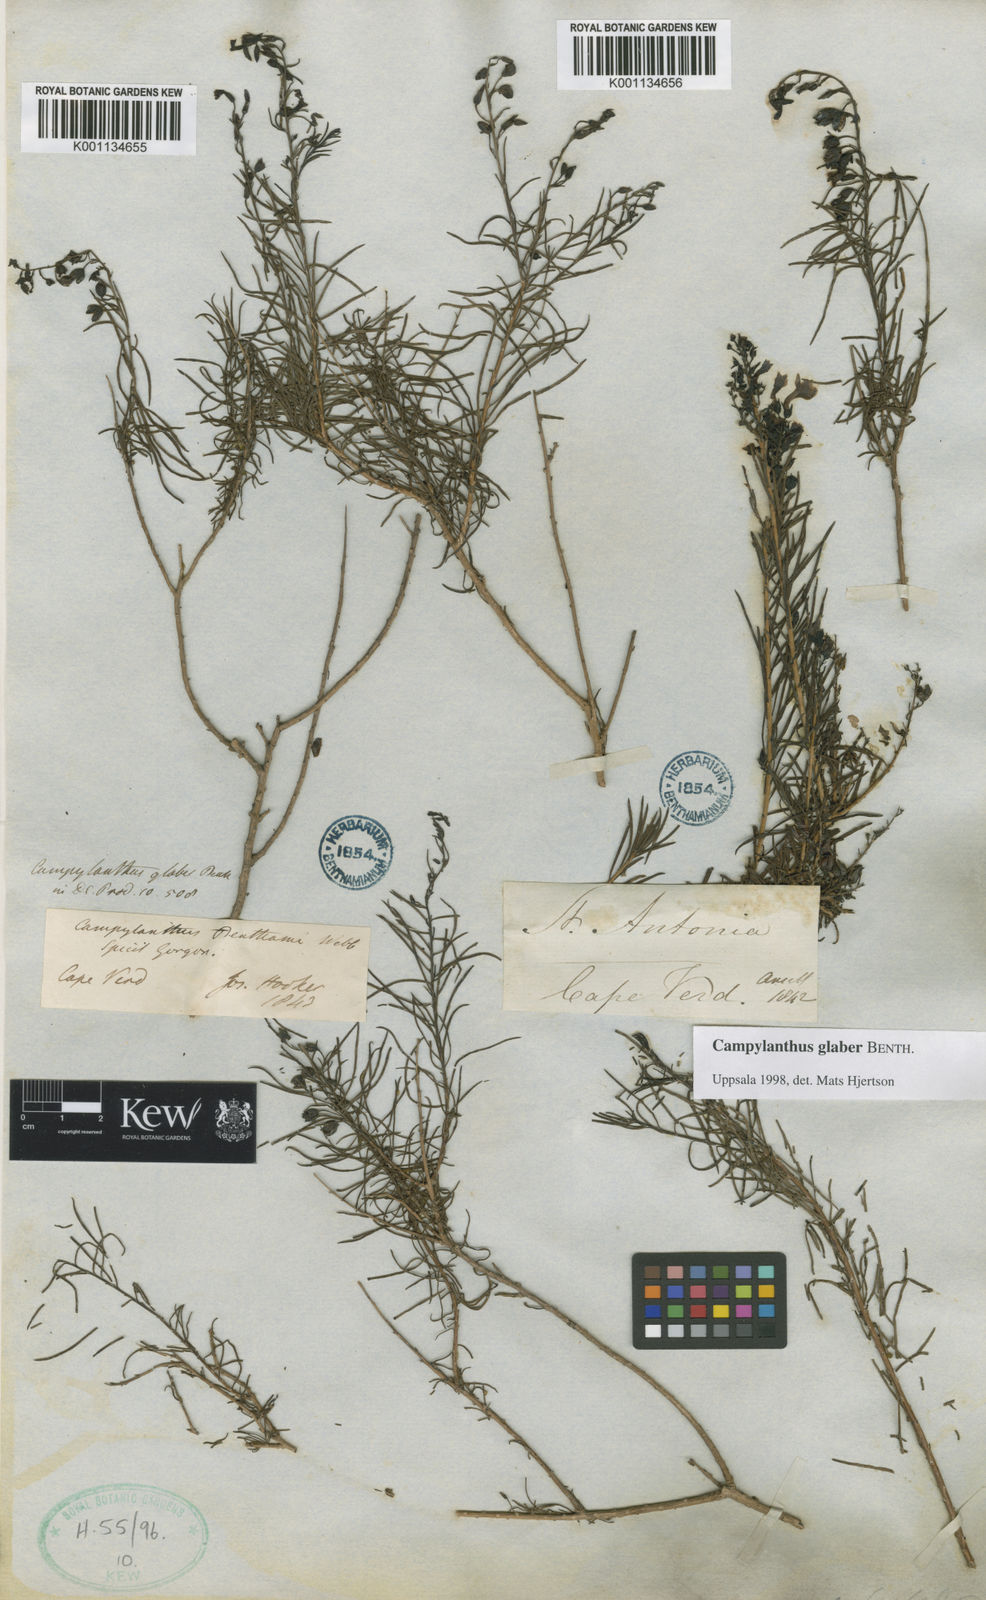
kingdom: Plantae
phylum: Tracheophyta
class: Magnoliopsida
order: Lamiales
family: Plantaginaceae
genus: Campylanthus
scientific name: Campylanthus glaber
